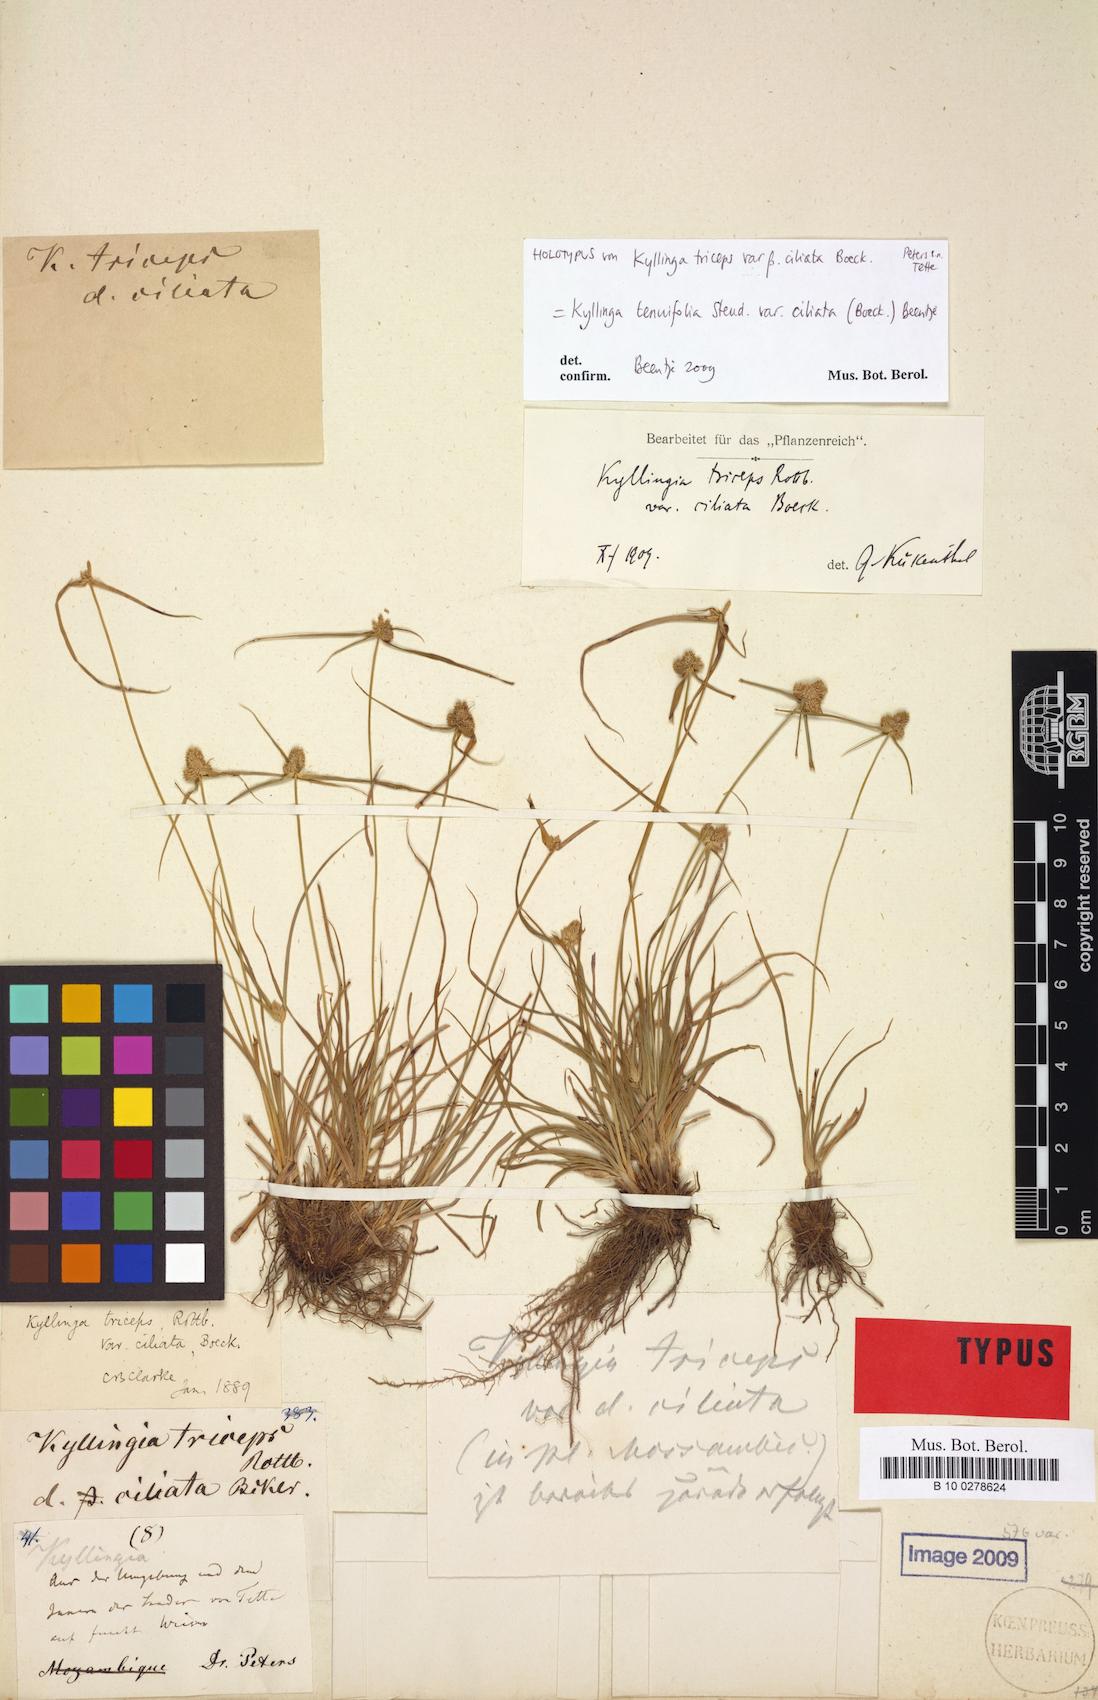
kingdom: Plantae
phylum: Tracheophyta
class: Liliopsida
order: Poales
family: Cyperaceae
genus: Cyperus
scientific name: Cyperus welwitschii
